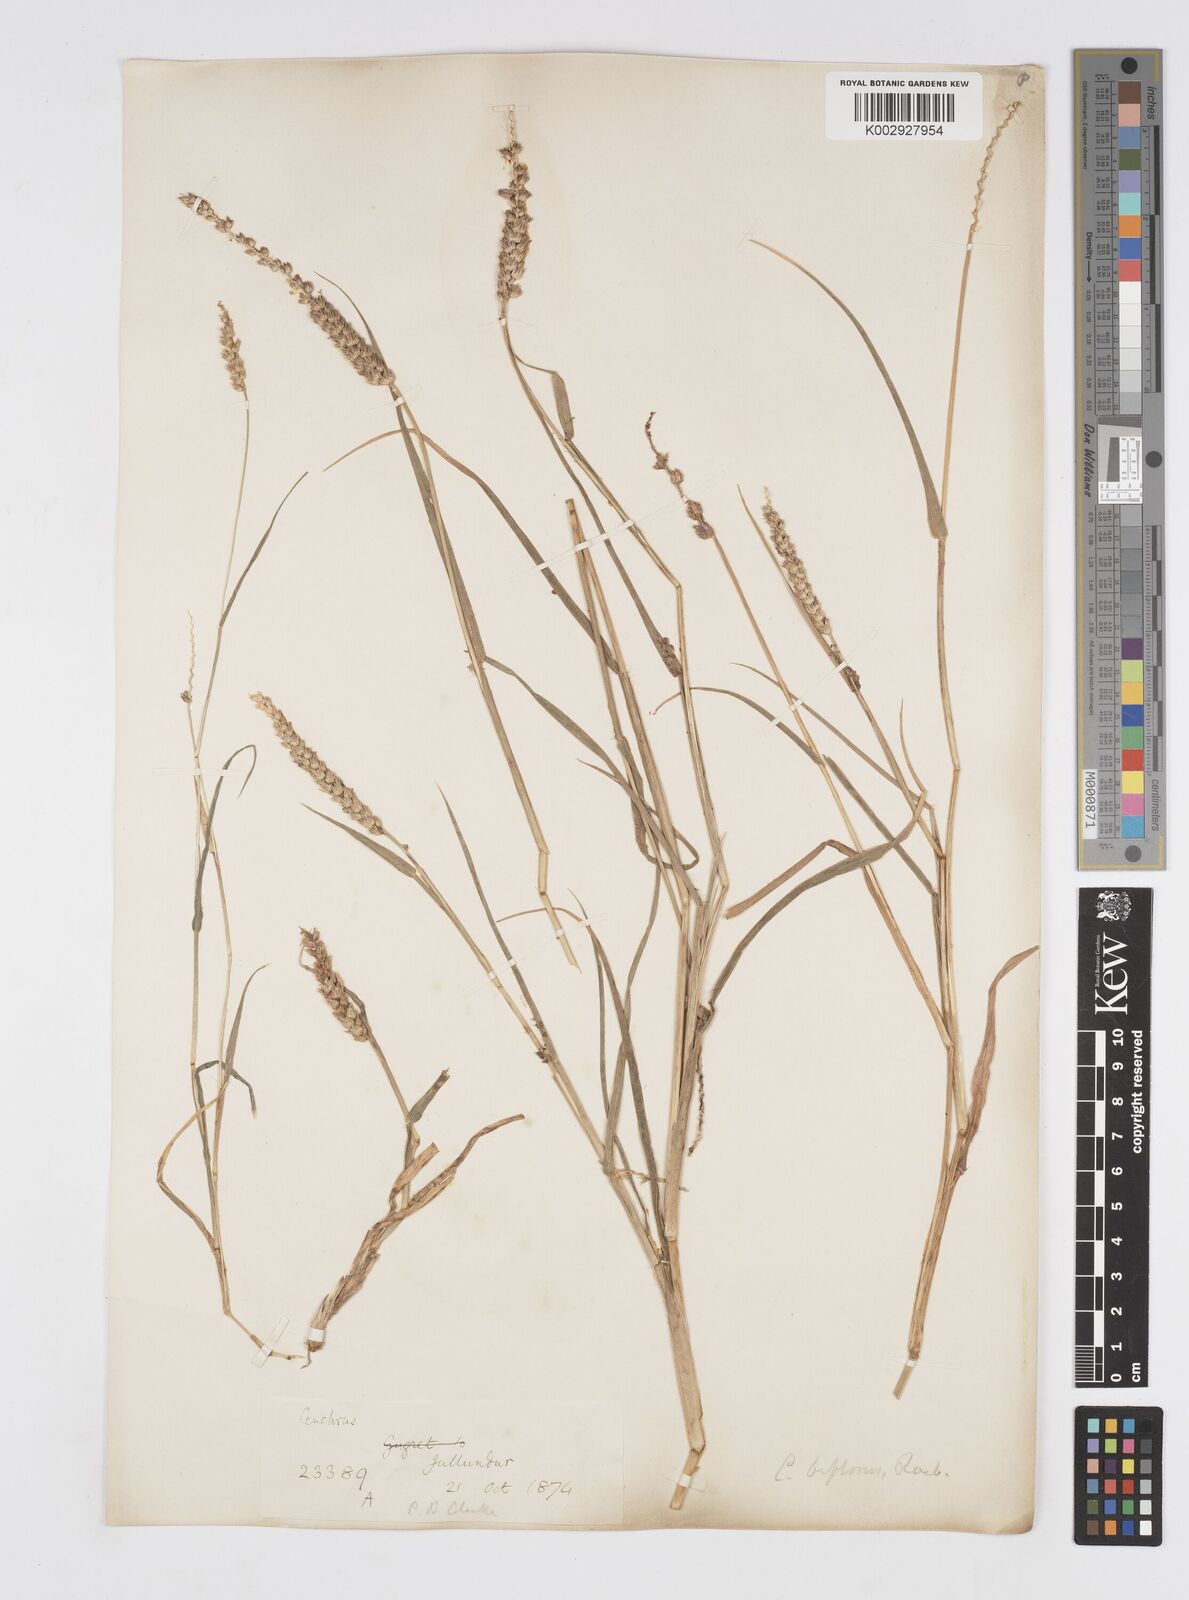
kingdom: Plantae
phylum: Tracheophyta
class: Liliopsida
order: Poales
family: Poaceae
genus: Cenchrus
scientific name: Cenchrus setigerus
